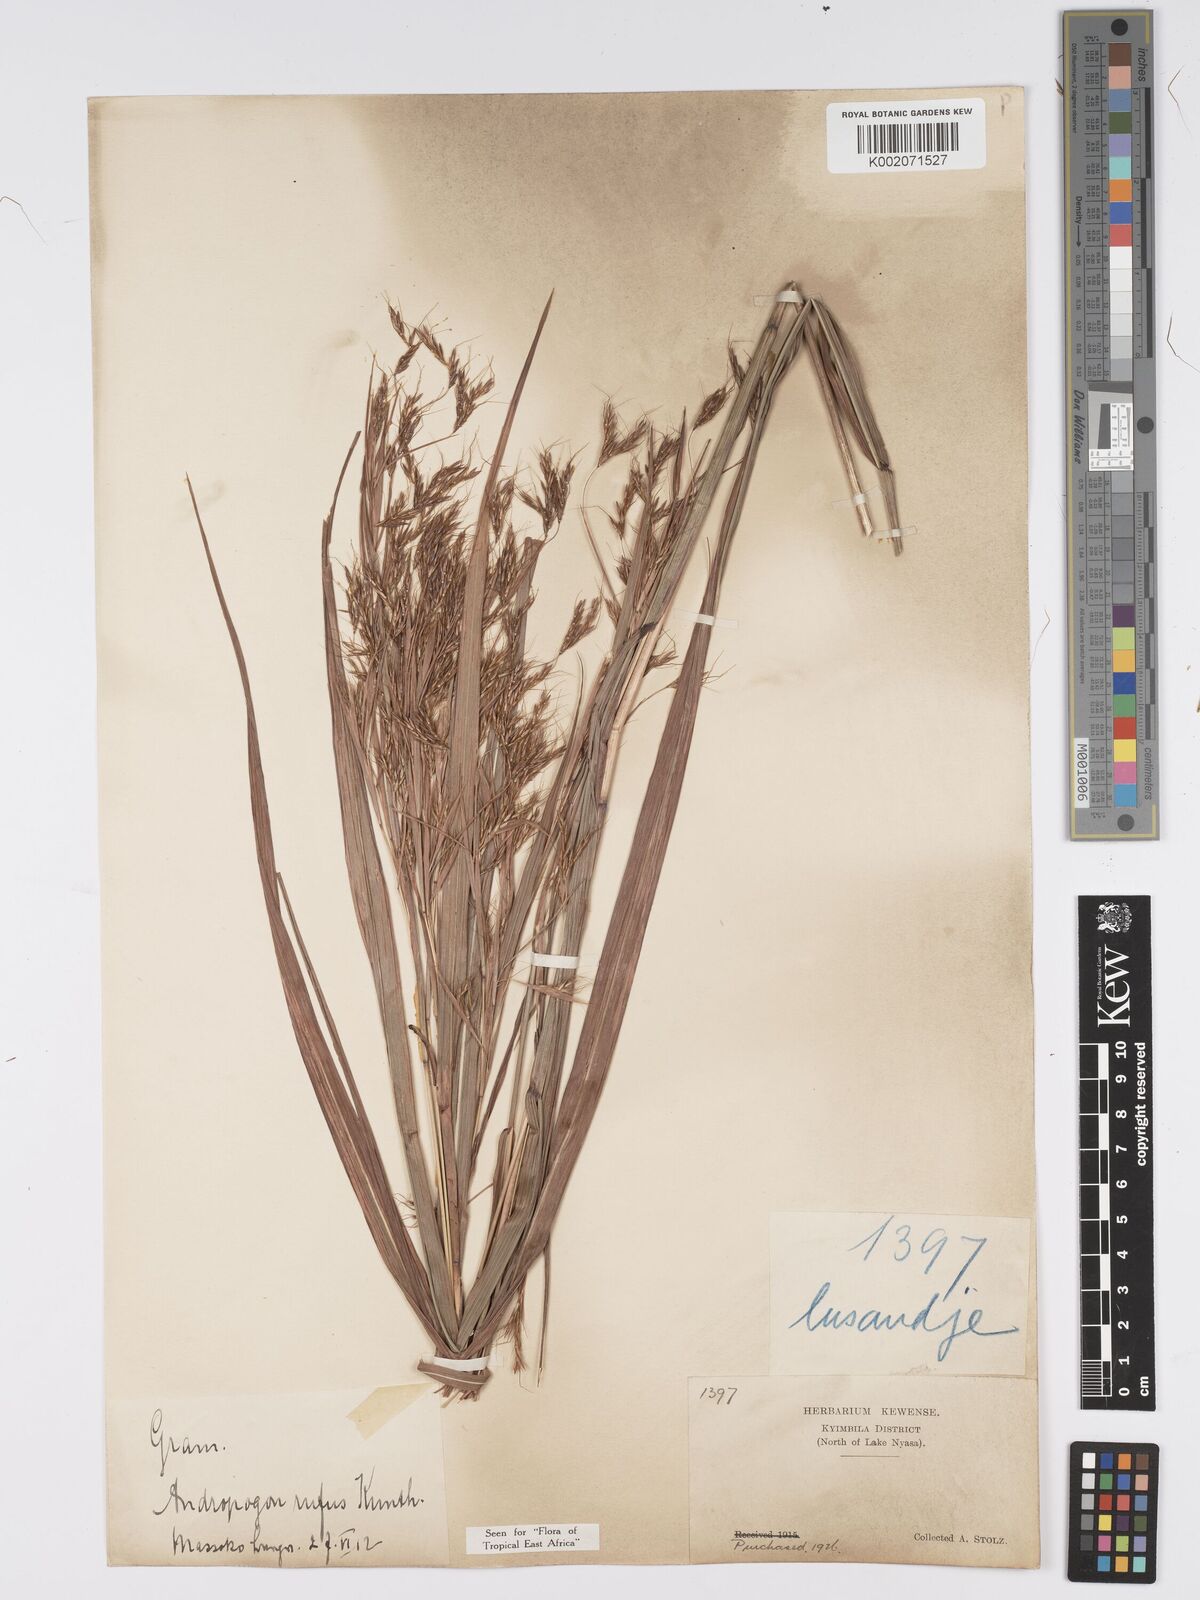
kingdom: Plantae
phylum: Tracheophyta
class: Liliopsida
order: Poales
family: Poaceae
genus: Hyparrhenia
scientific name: Hyparrhenia rufa
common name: Jaraguagrass
